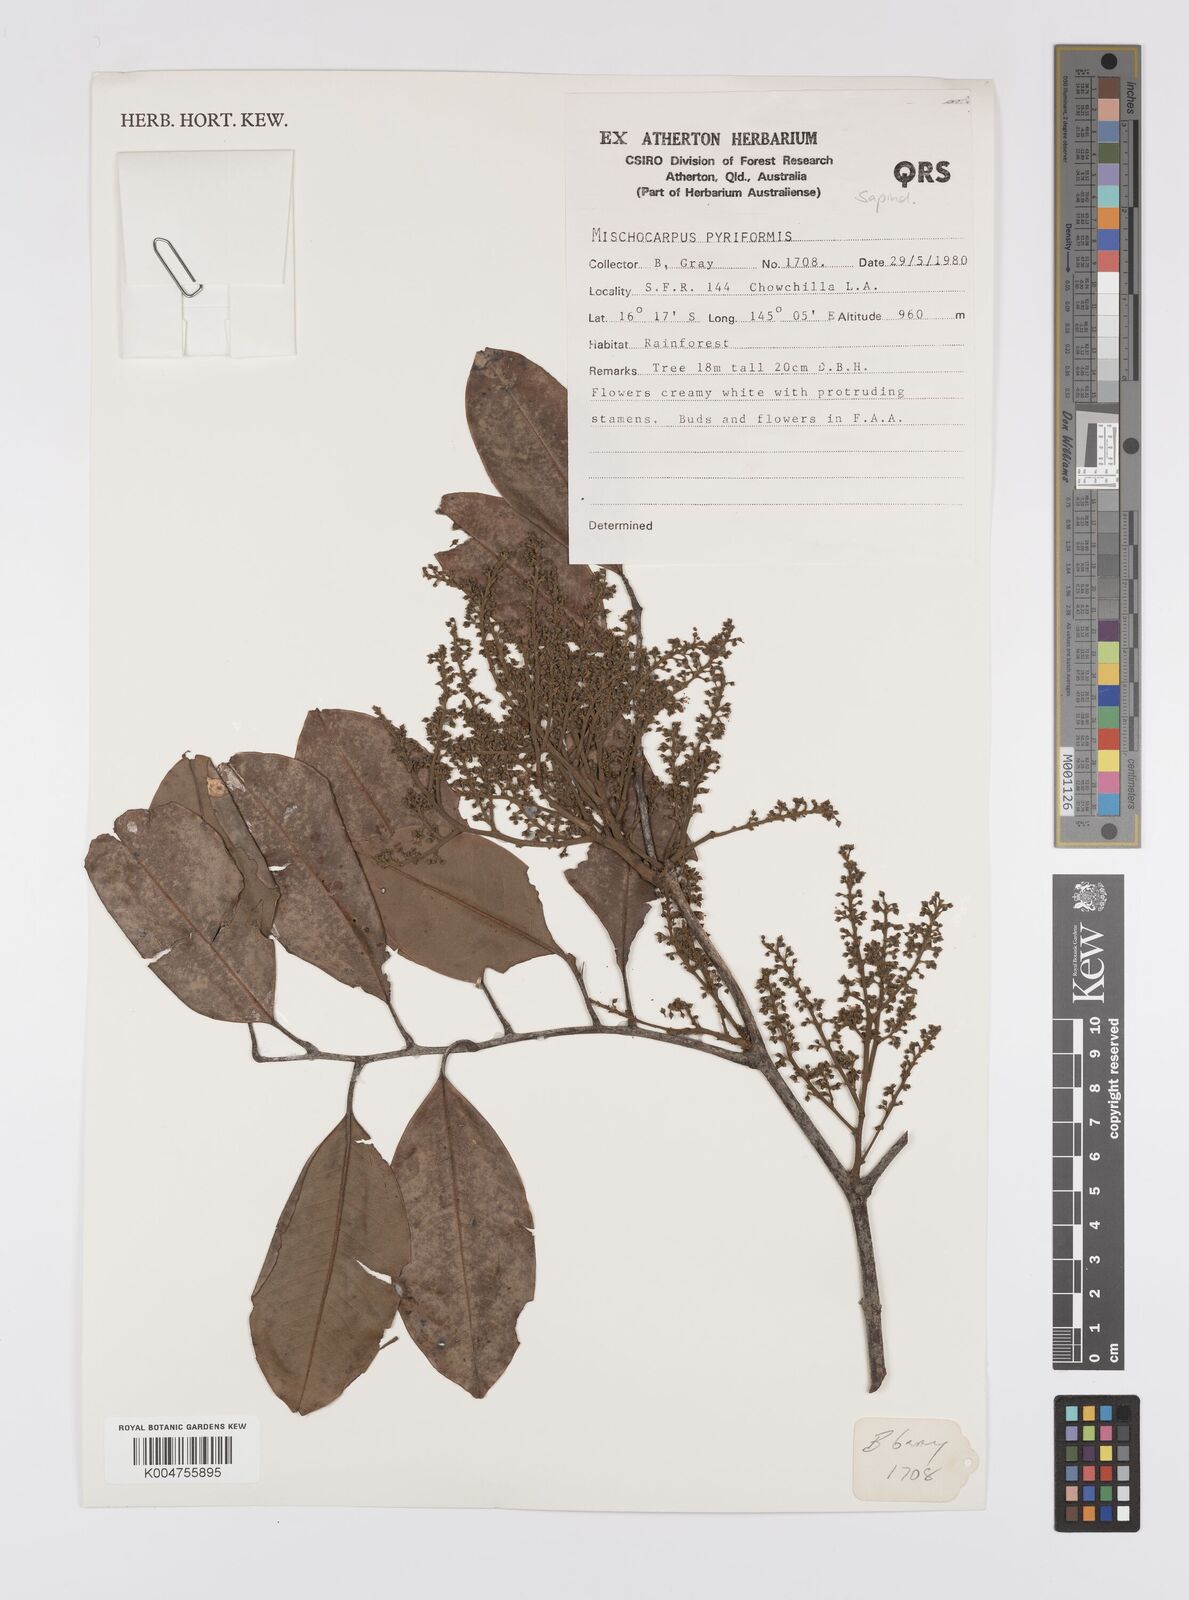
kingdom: Plantae
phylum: Tracheophyta
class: Magnoliopsida
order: Sapindales
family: Sapindaceae
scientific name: Sapindaceae
